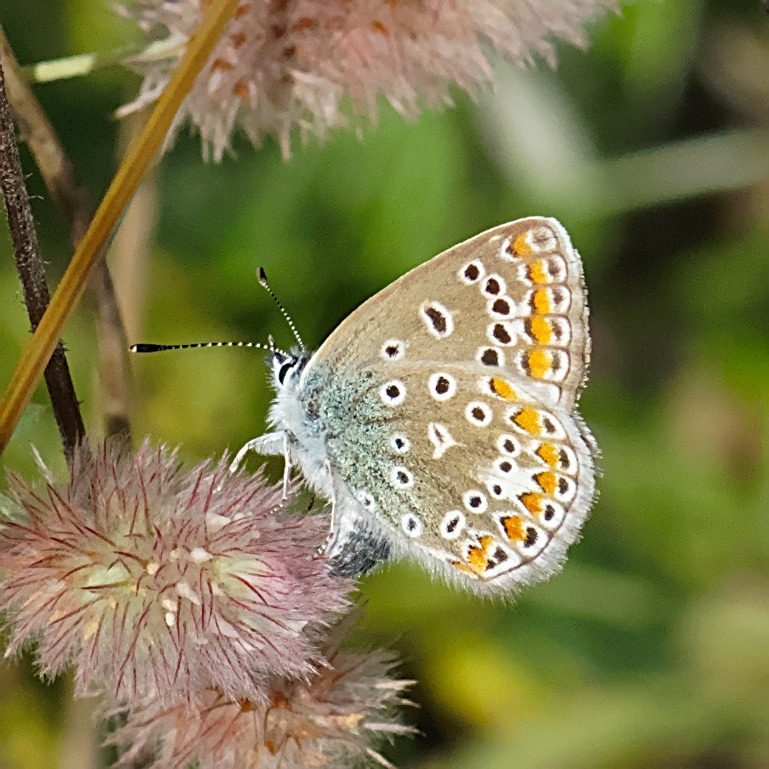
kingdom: Animalia
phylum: Arthropoda
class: Insecta
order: Lepidoptera
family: Lycaenidae
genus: Polyommatus
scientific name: Polyommatus icarus
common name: Almindelig blåfugl
